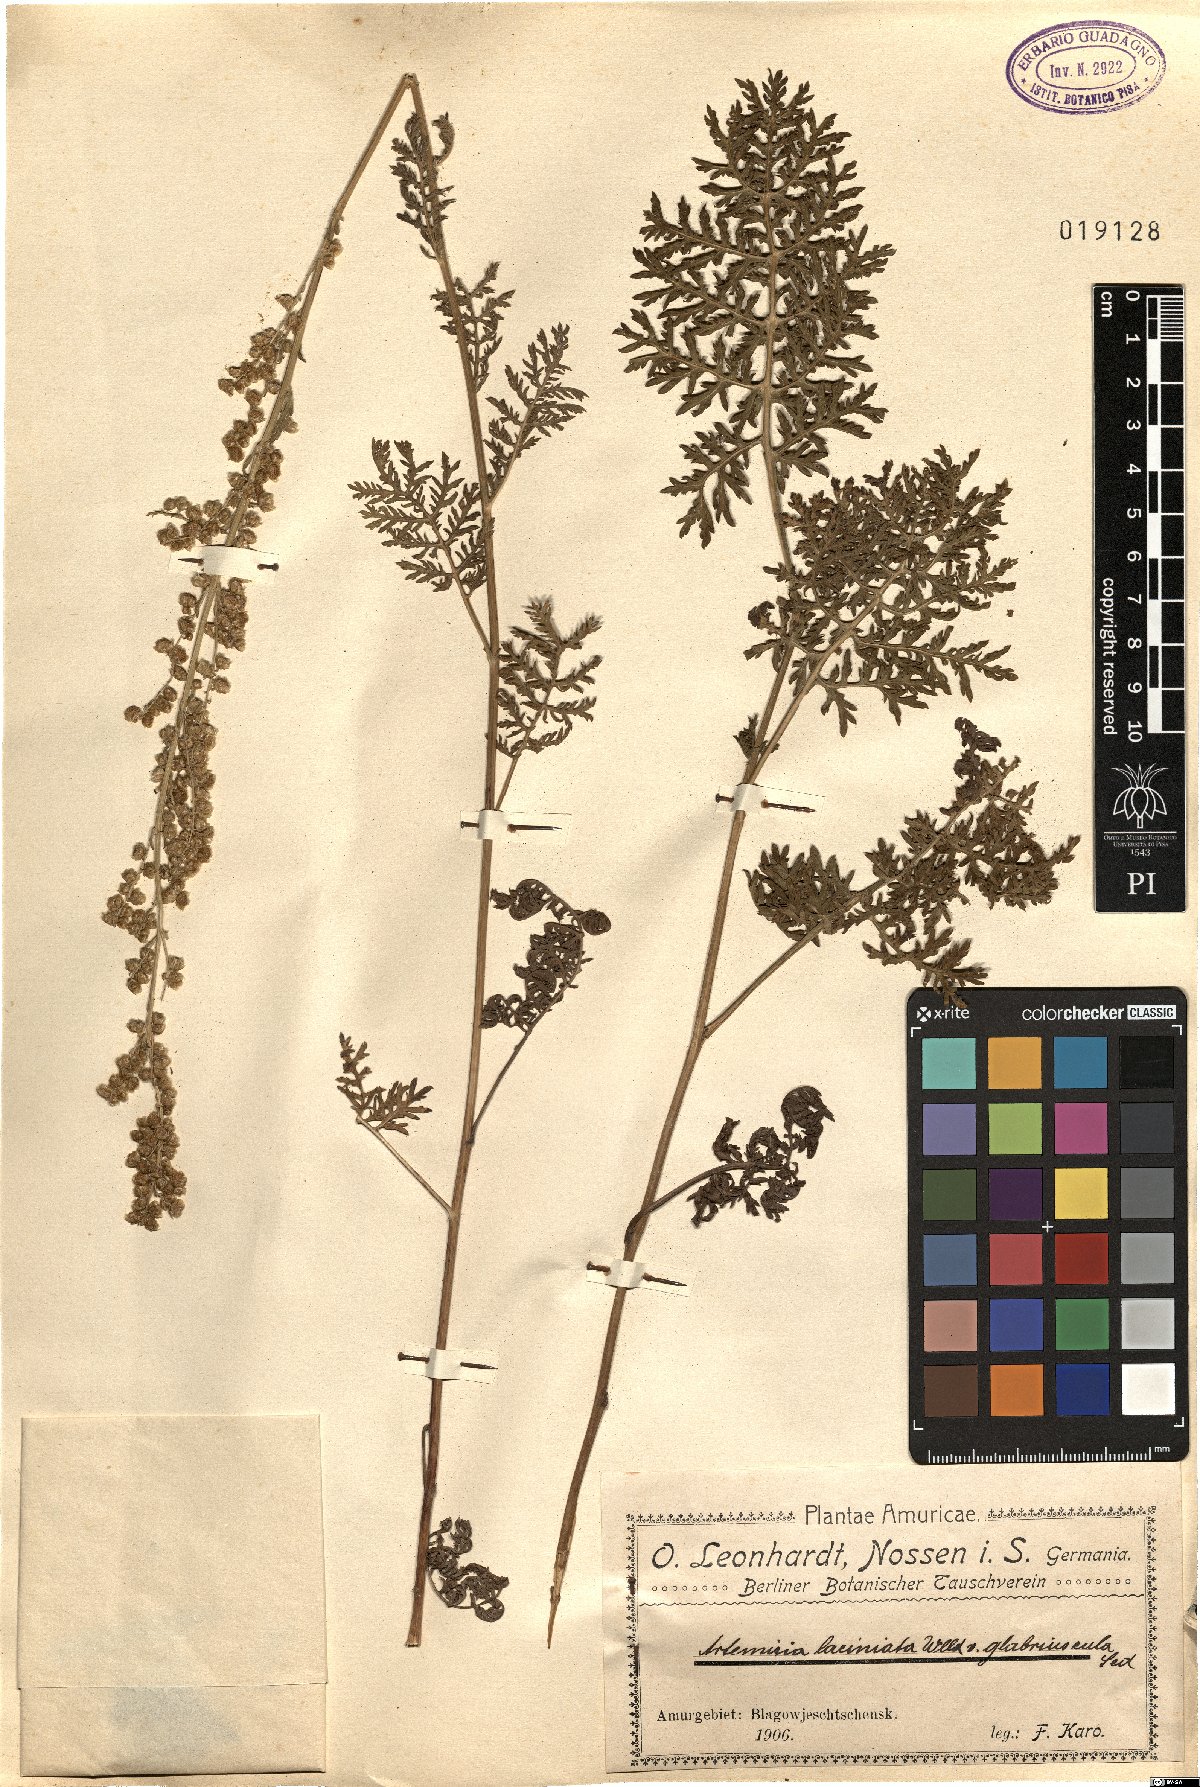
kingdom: Plantae
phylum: Tracheophyta
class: Magnoliopsida
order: Asterales
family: Asteraceae
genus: Artemisia
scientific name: Artemisia tanacetifolia
